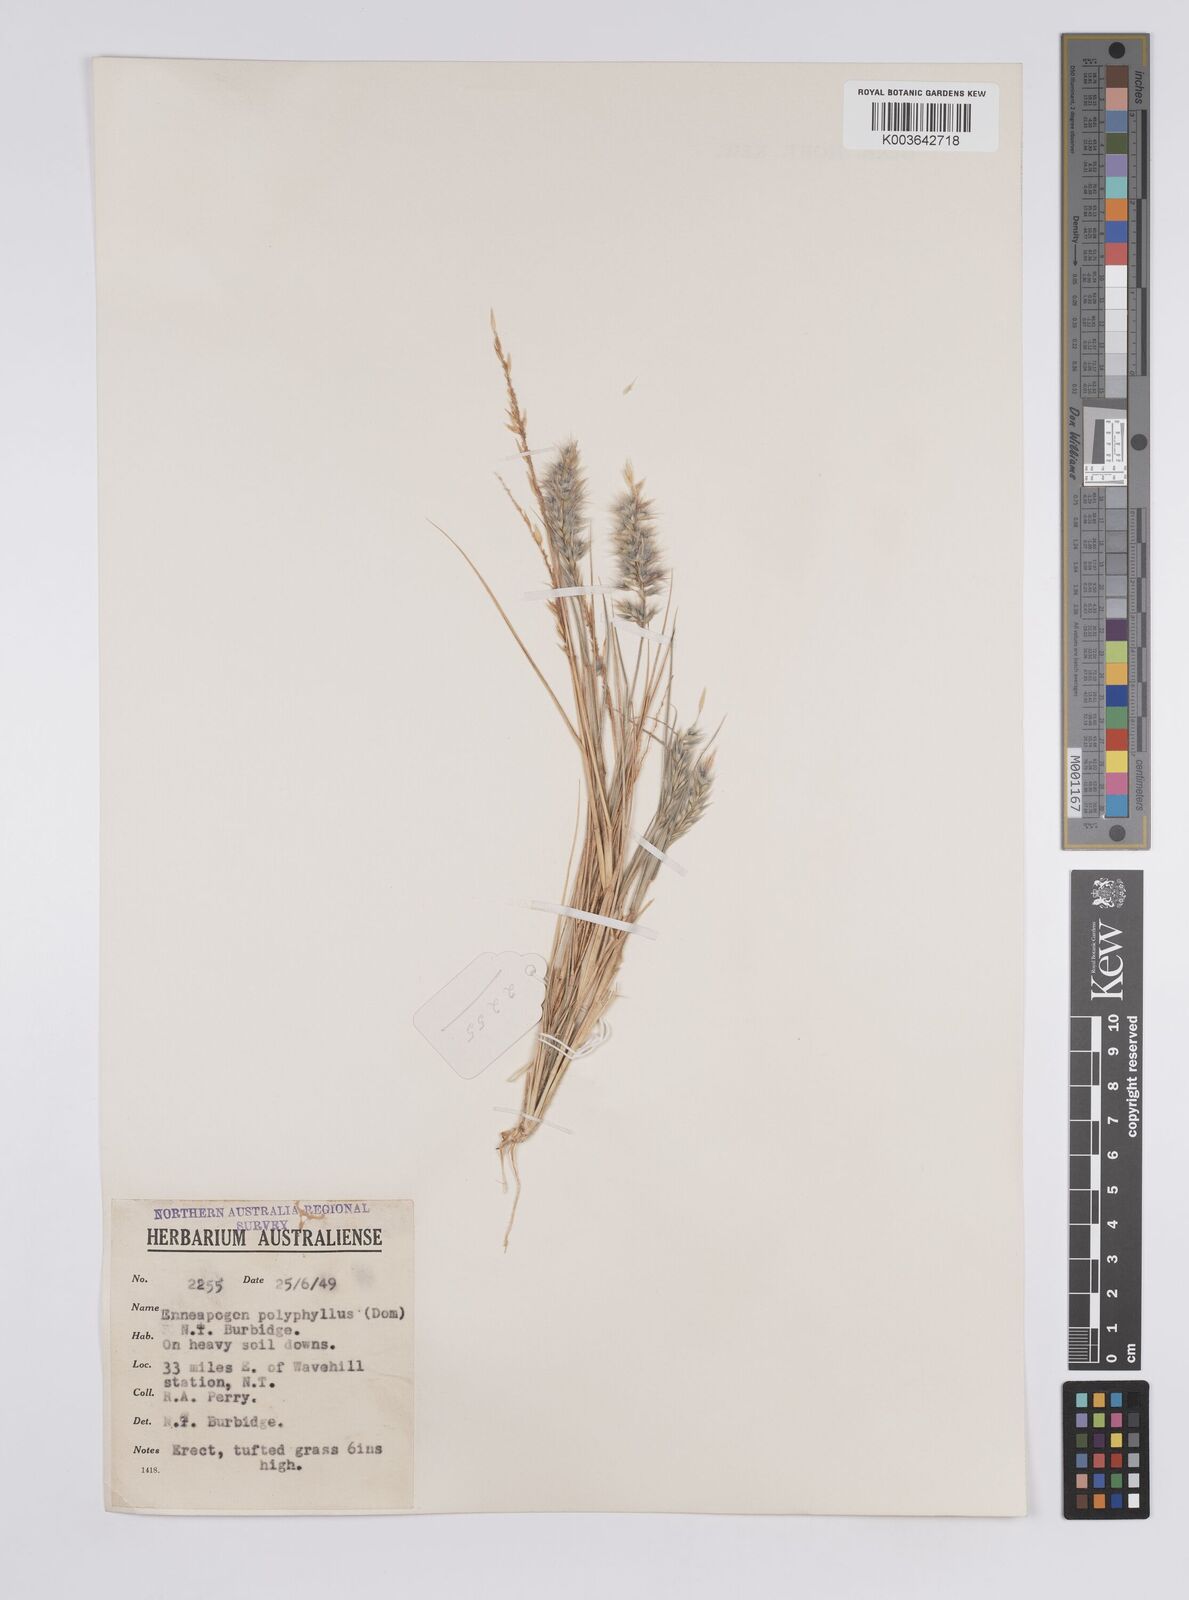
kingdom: Plantae
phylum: Tracheophyta
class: Liliopsida
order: Poales
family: Poaceae
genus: Enneapogon
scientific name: Enneapogon polyphyllus
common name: Leafy nineawn
